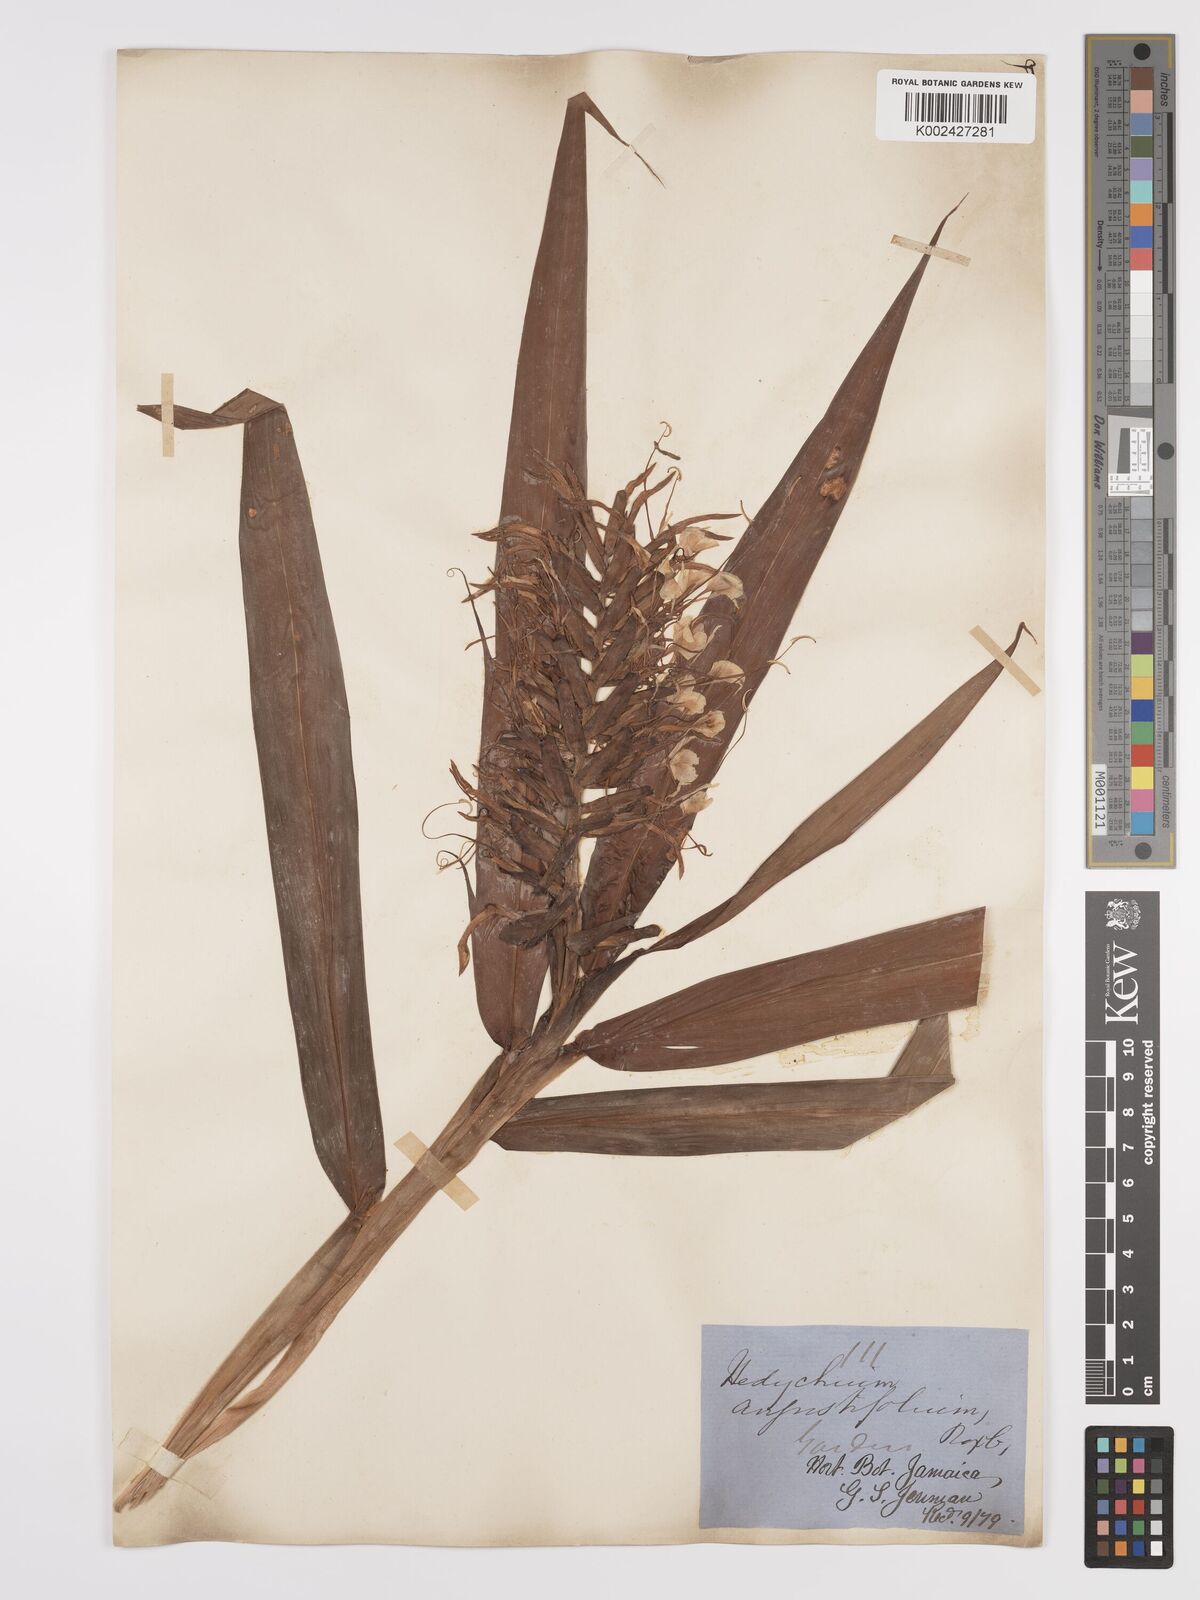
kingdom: Plantae
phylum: Tracheophyta
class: Liliopsida
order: Zingiberales
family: Zingiberaceae
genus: Hedychium
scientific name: Hedychium coccineum
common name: Red ginger-lily
